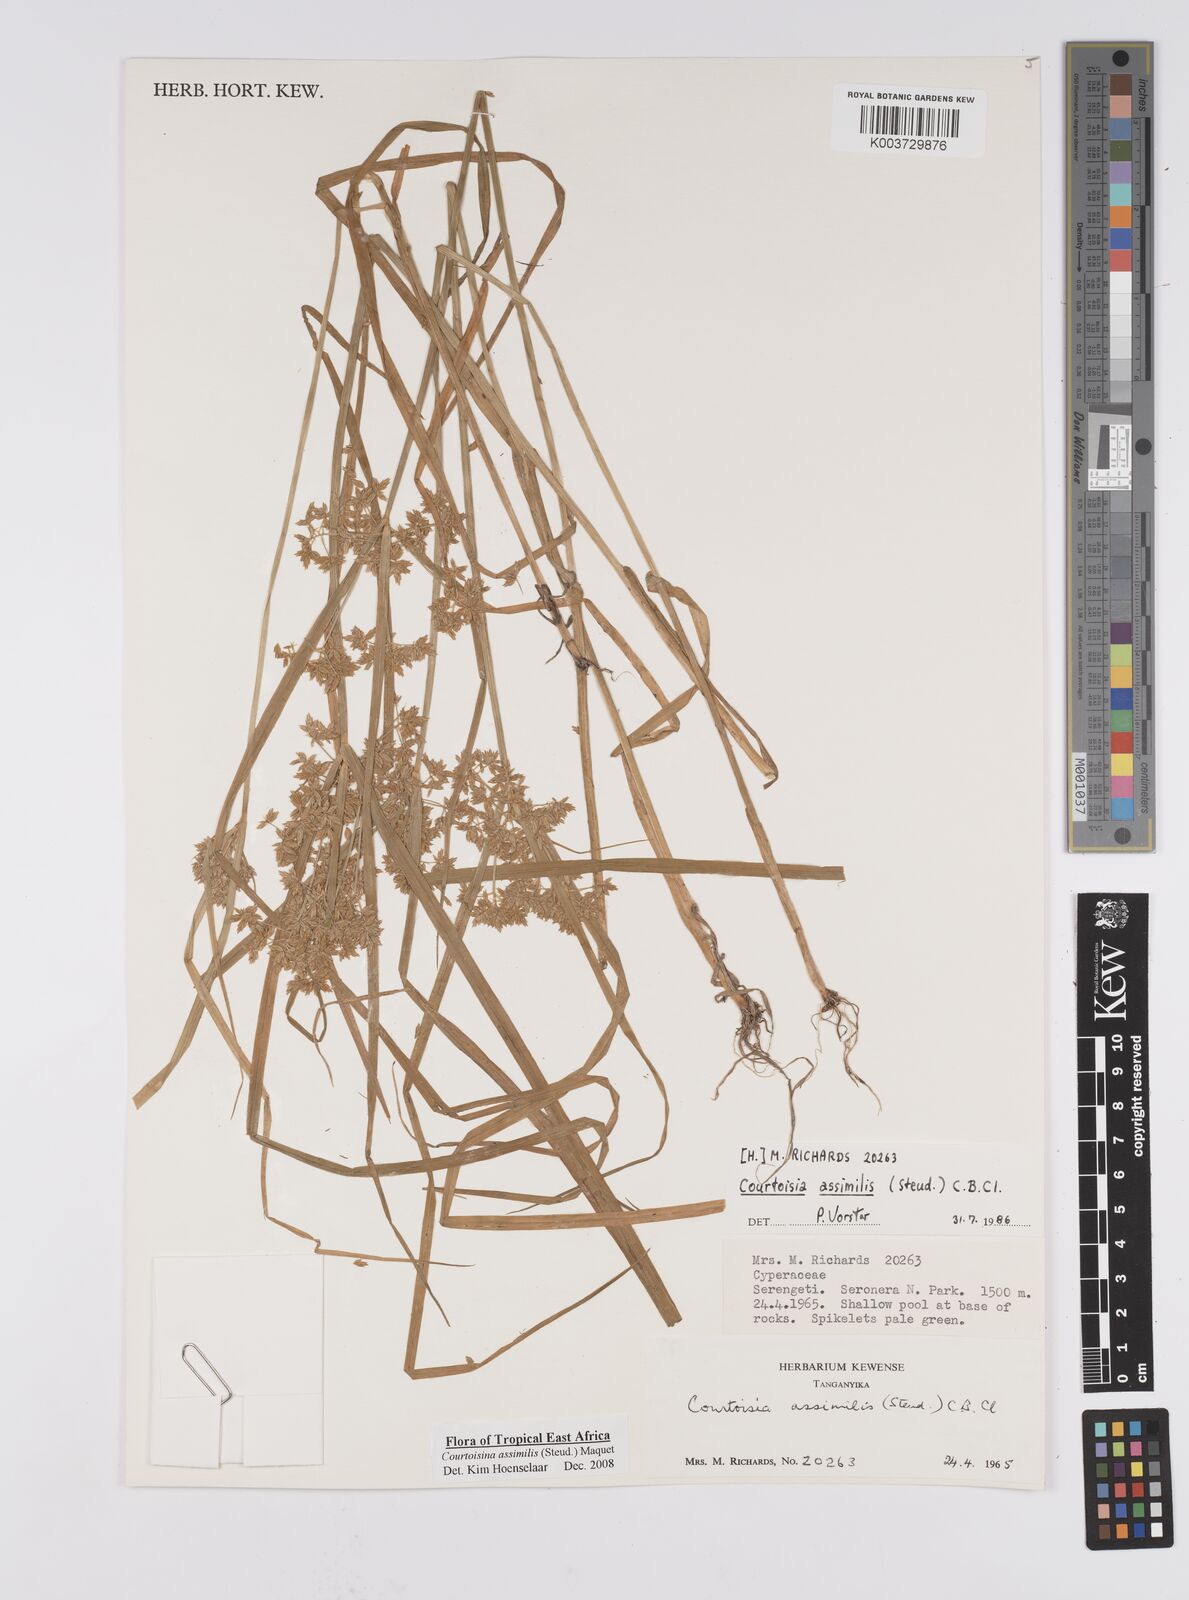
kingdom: Plantae
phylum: Tracheophyta
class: Liliopsida
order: Poales
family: Cyperaceae
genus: Cyperus
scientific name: Cyperus assimilis
